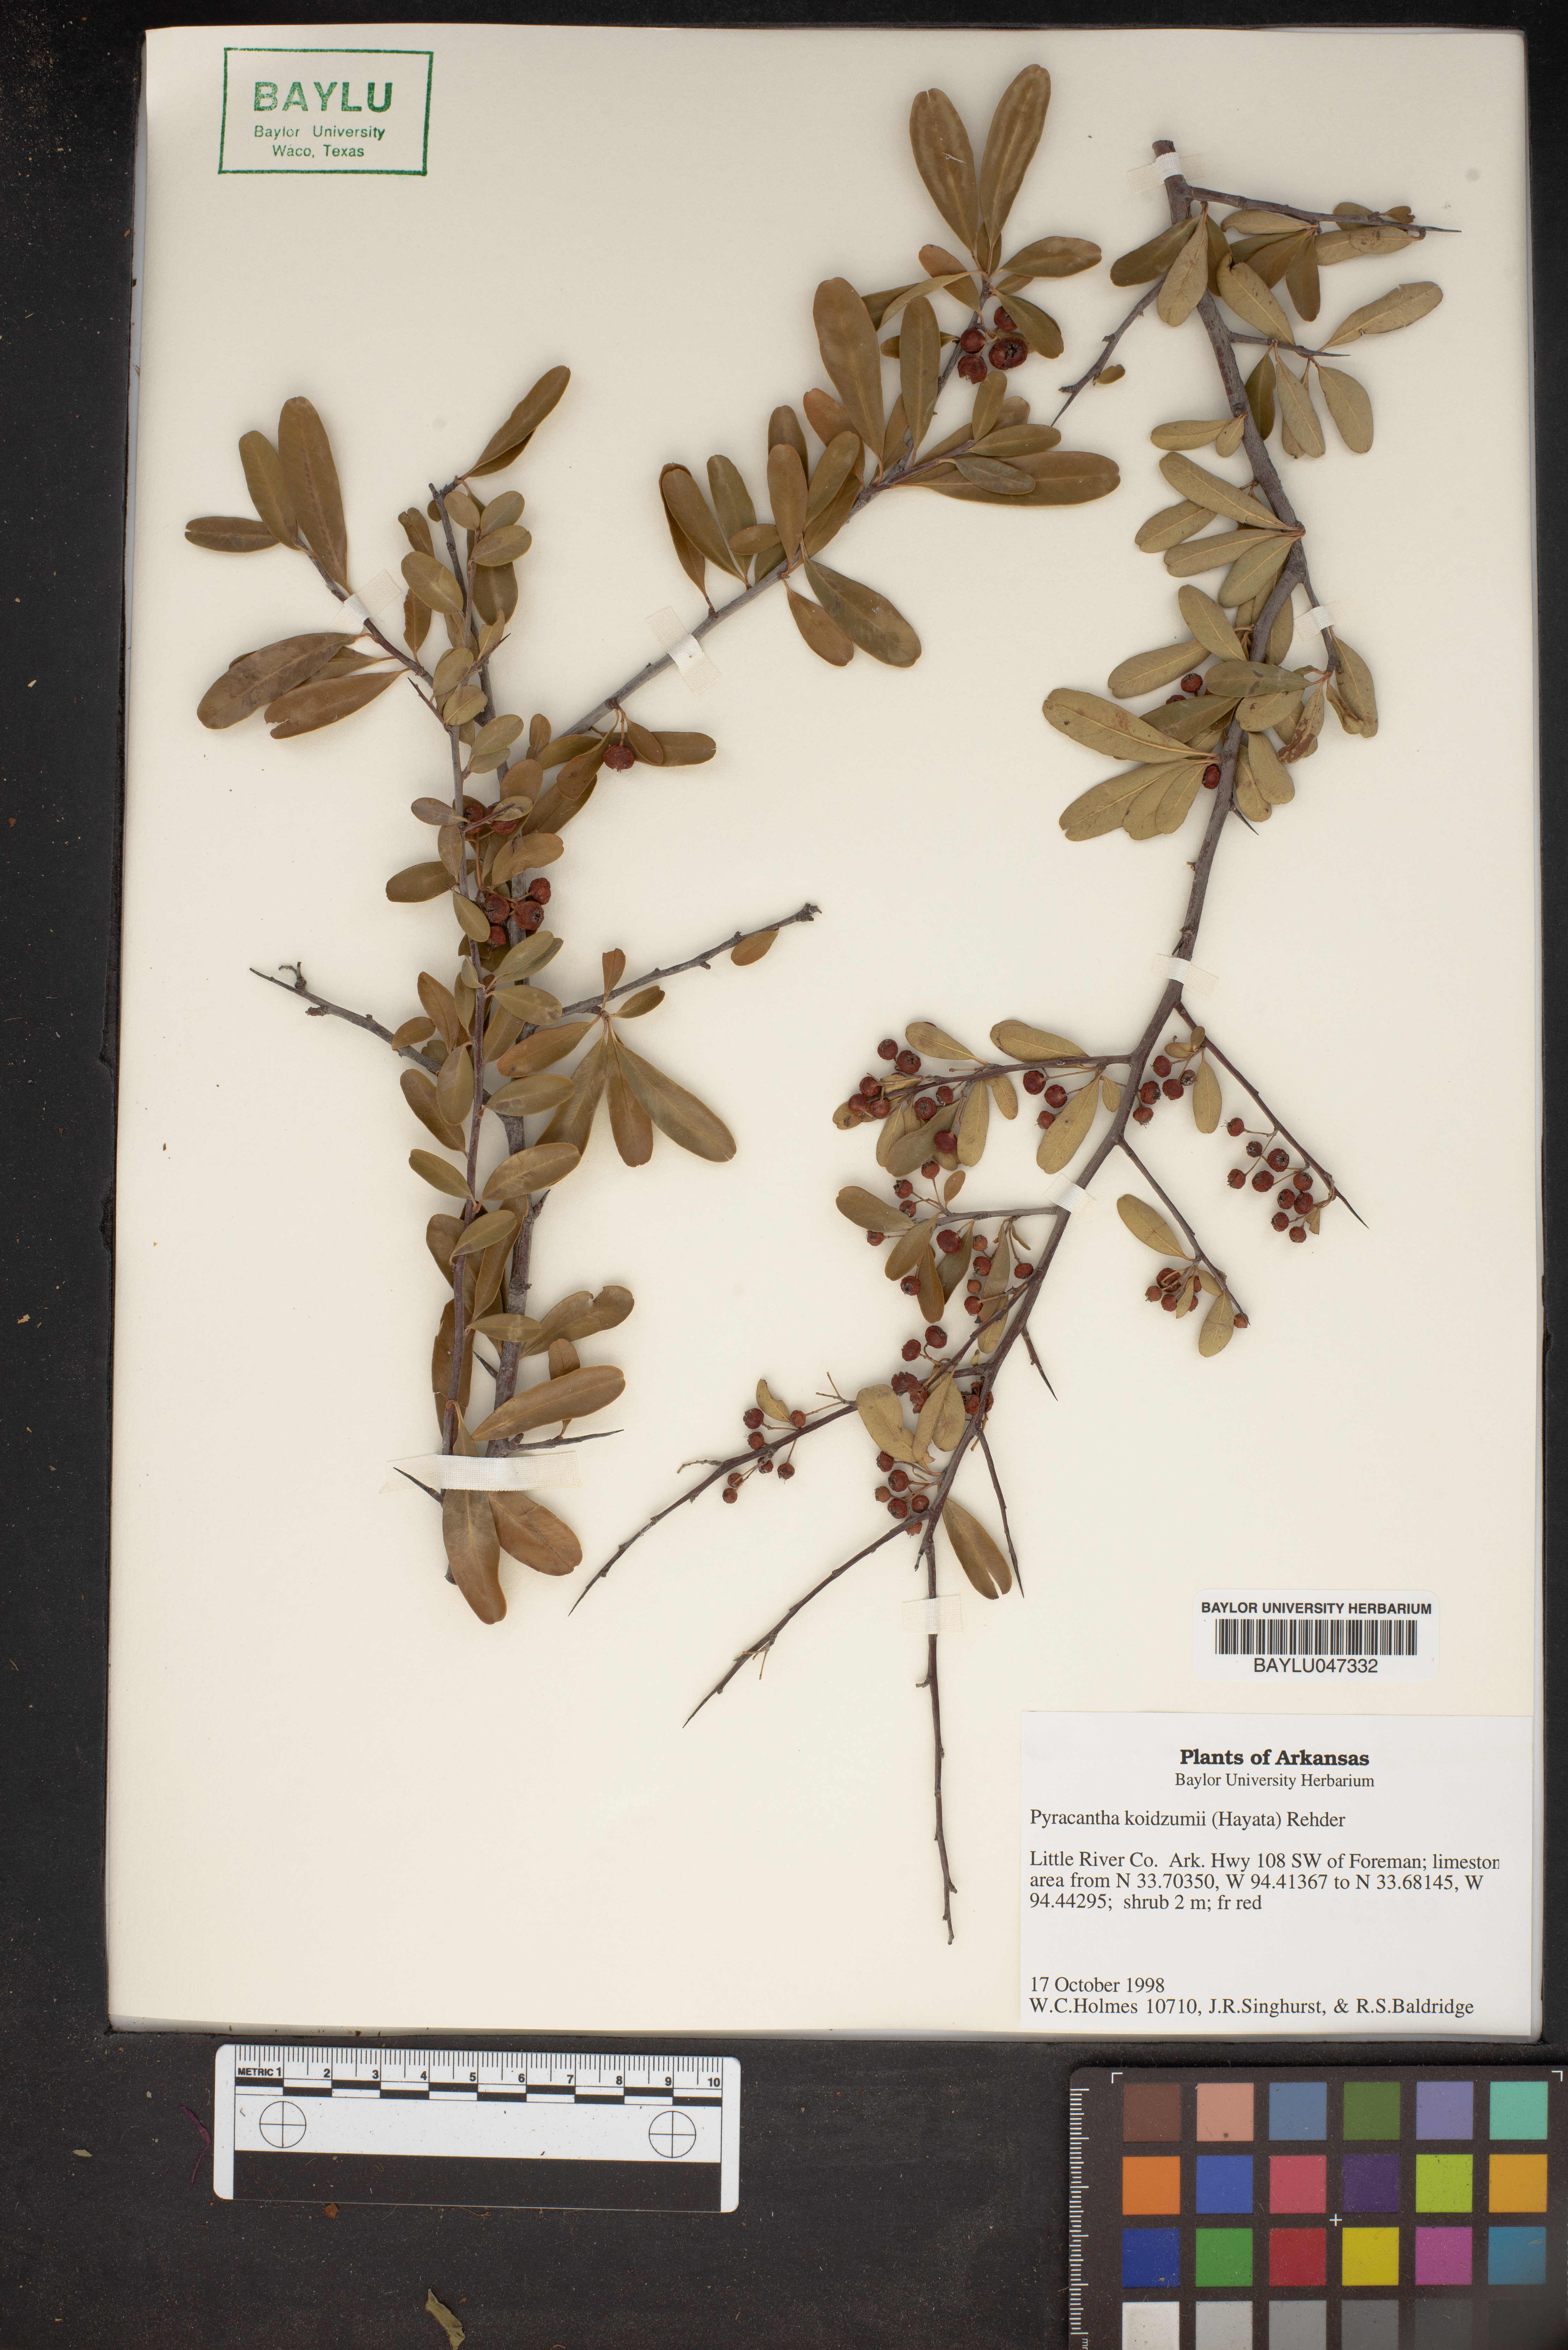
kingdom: Plantae
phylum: Tracheophyta
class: Magnoliopsida
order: Rosales
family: Rosaceae
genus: Pyracantha
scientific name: Pyracantha koidzumii
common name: Formosa firethorn
